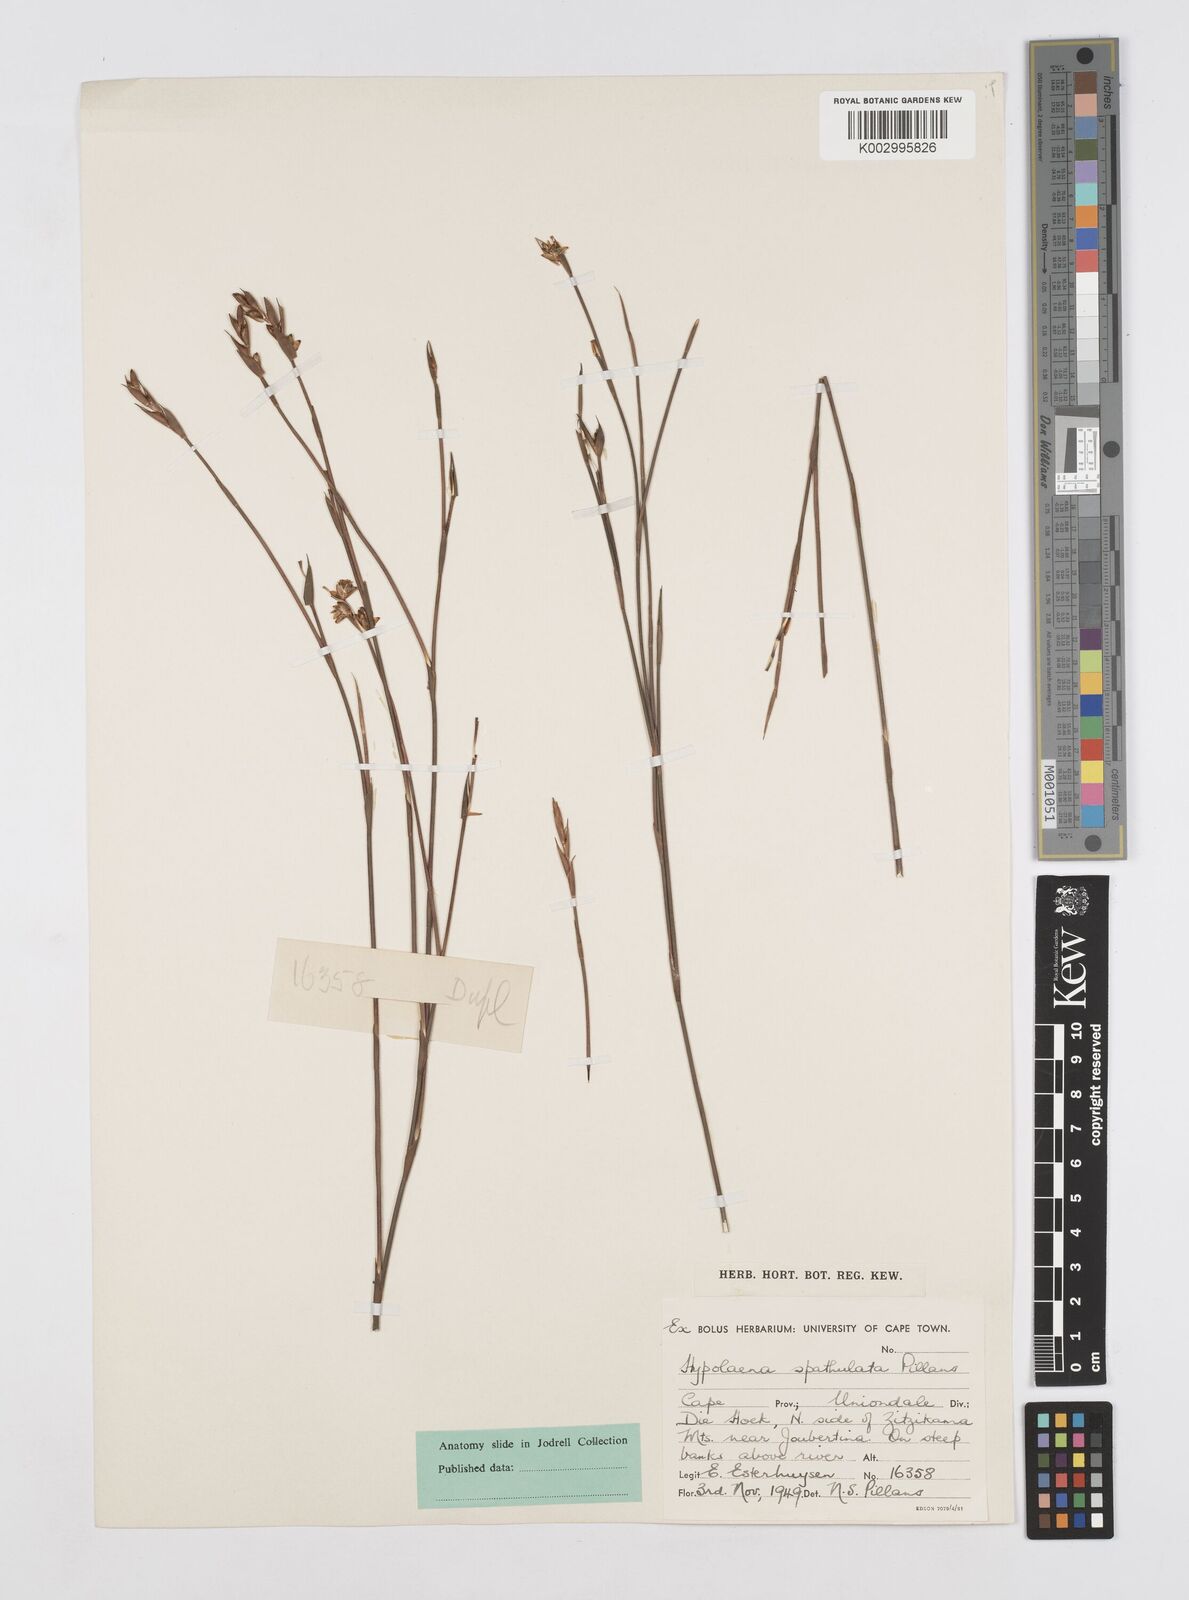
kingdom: Plantae
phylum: Tracheophyta
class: Liliopsida
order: Poales
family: Restionaceae
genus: Mastersiella
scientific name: Mastersiella spathulata
